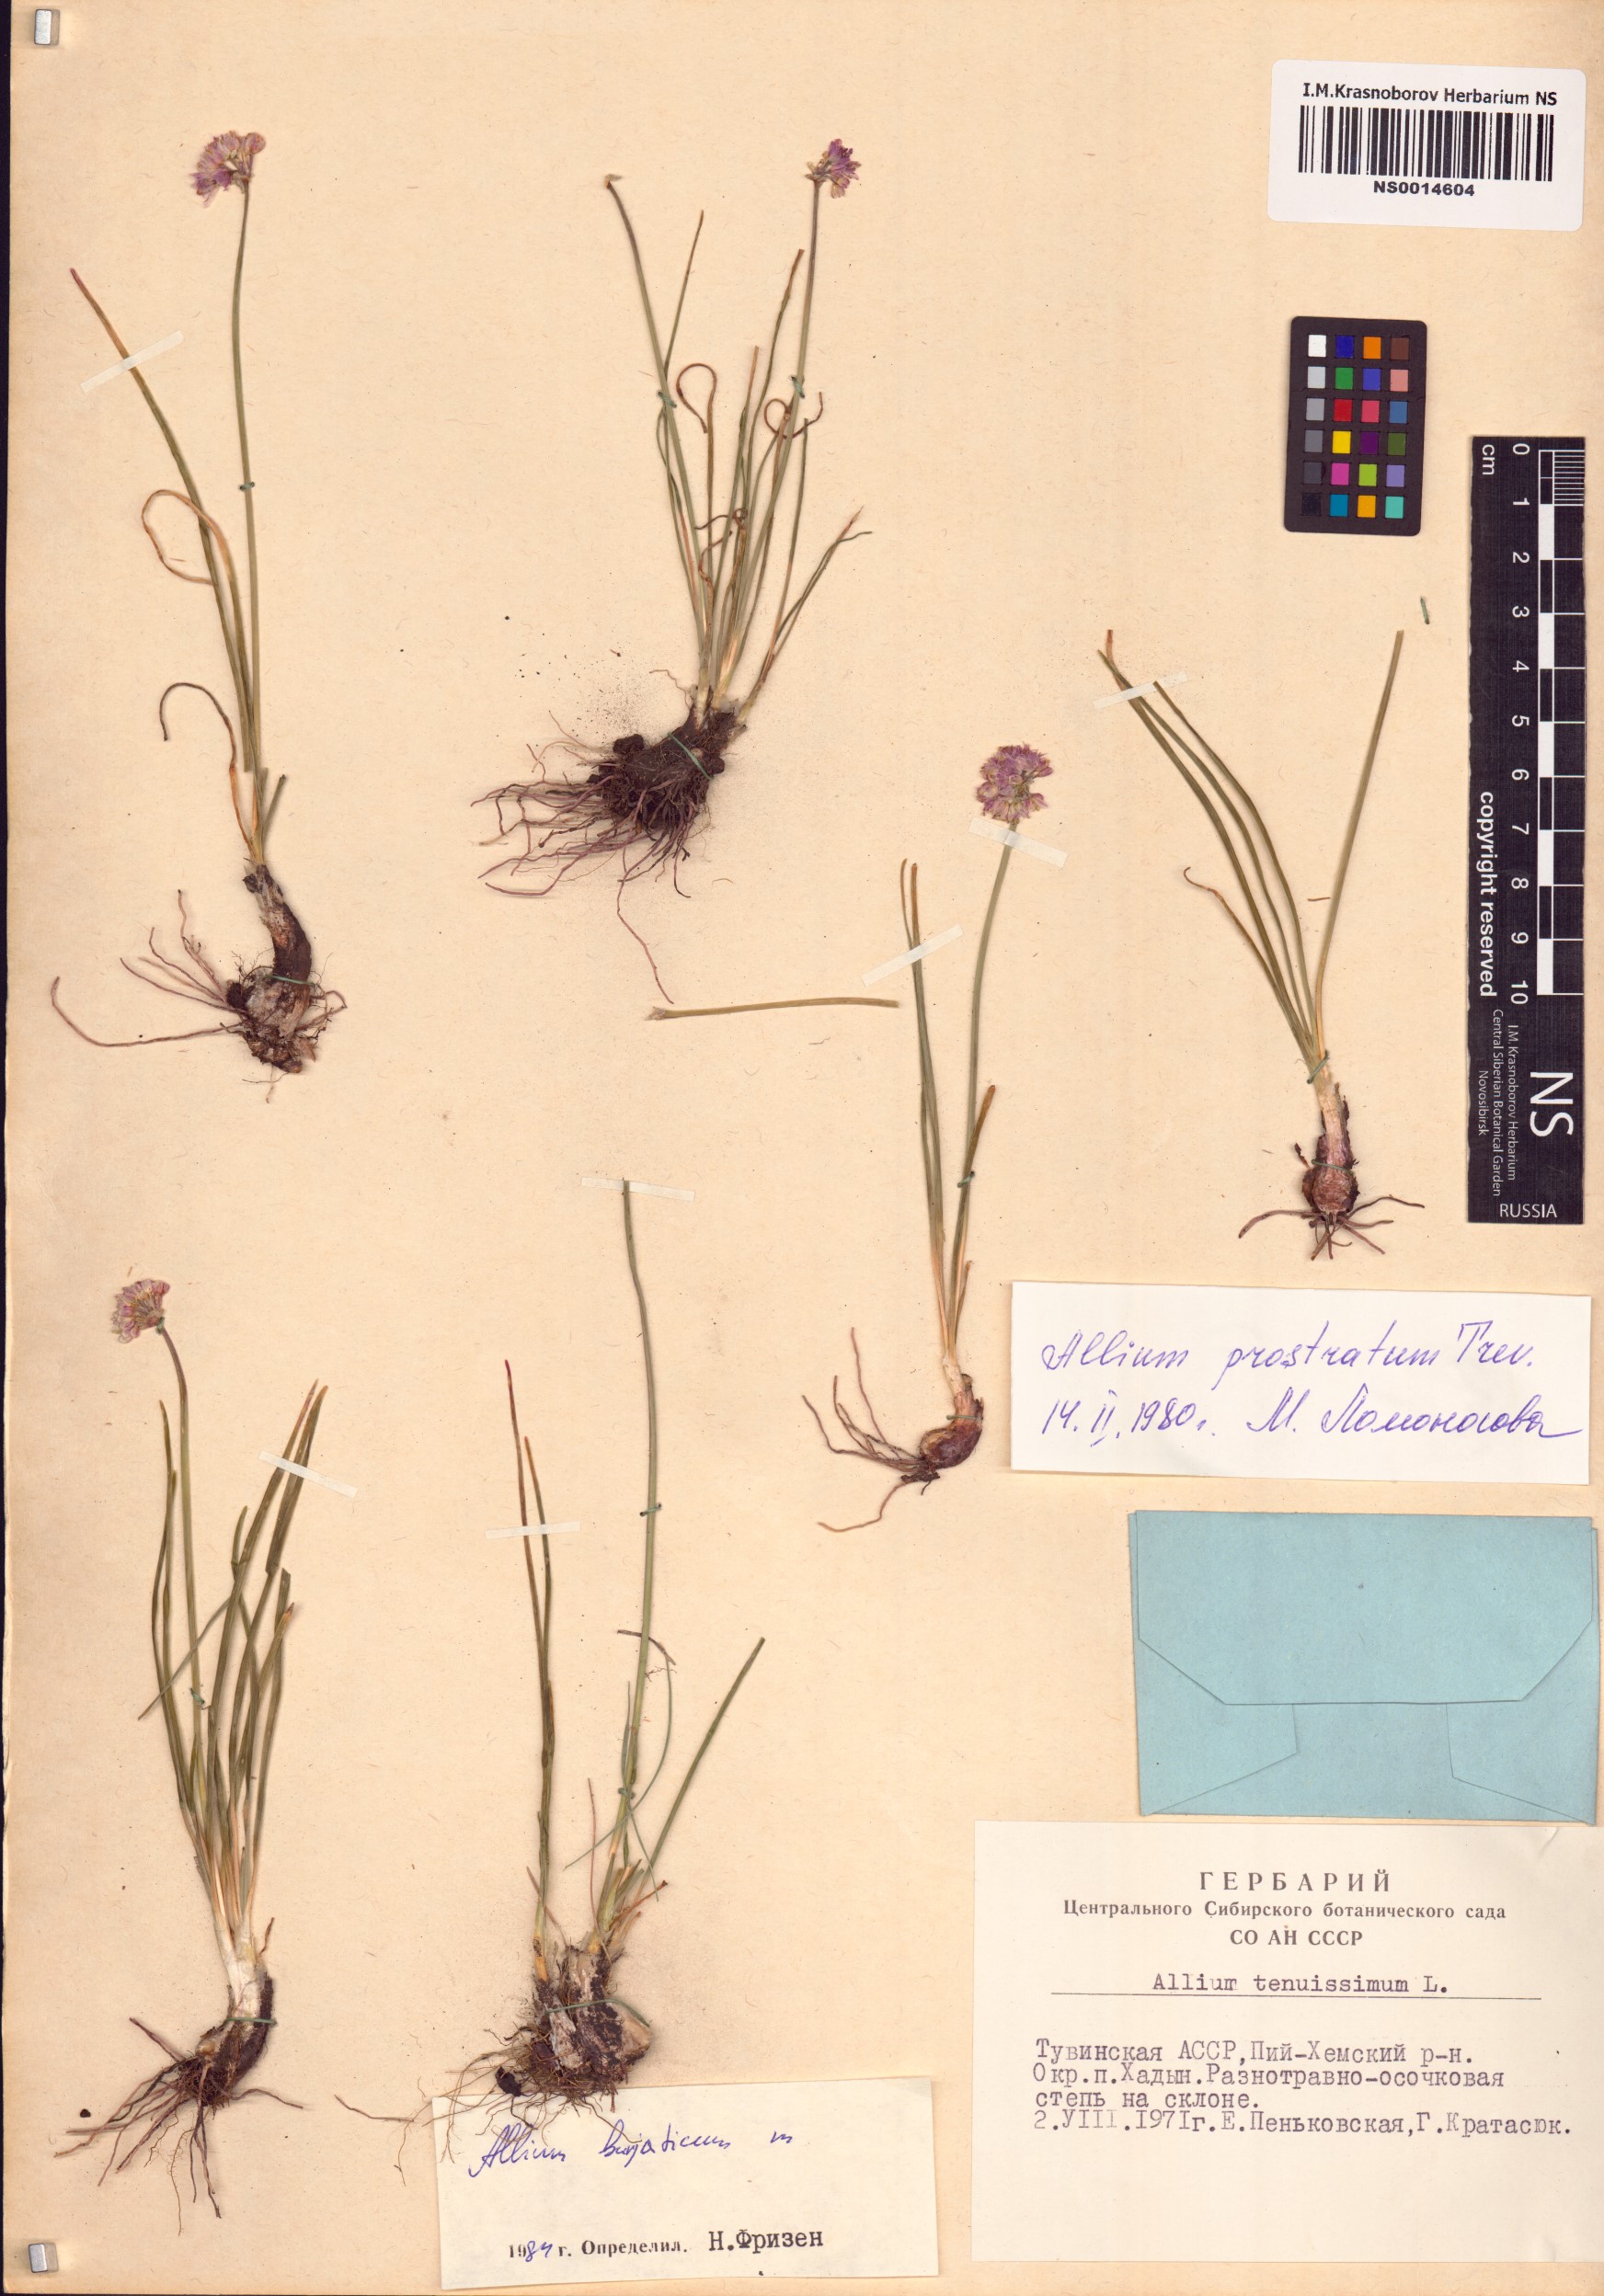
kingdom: Plantae
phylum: Tracheophyta
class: Liliopsida
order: Asparagales
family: Amaryllidaceae
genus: Allium
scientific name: Allium burjaticum
